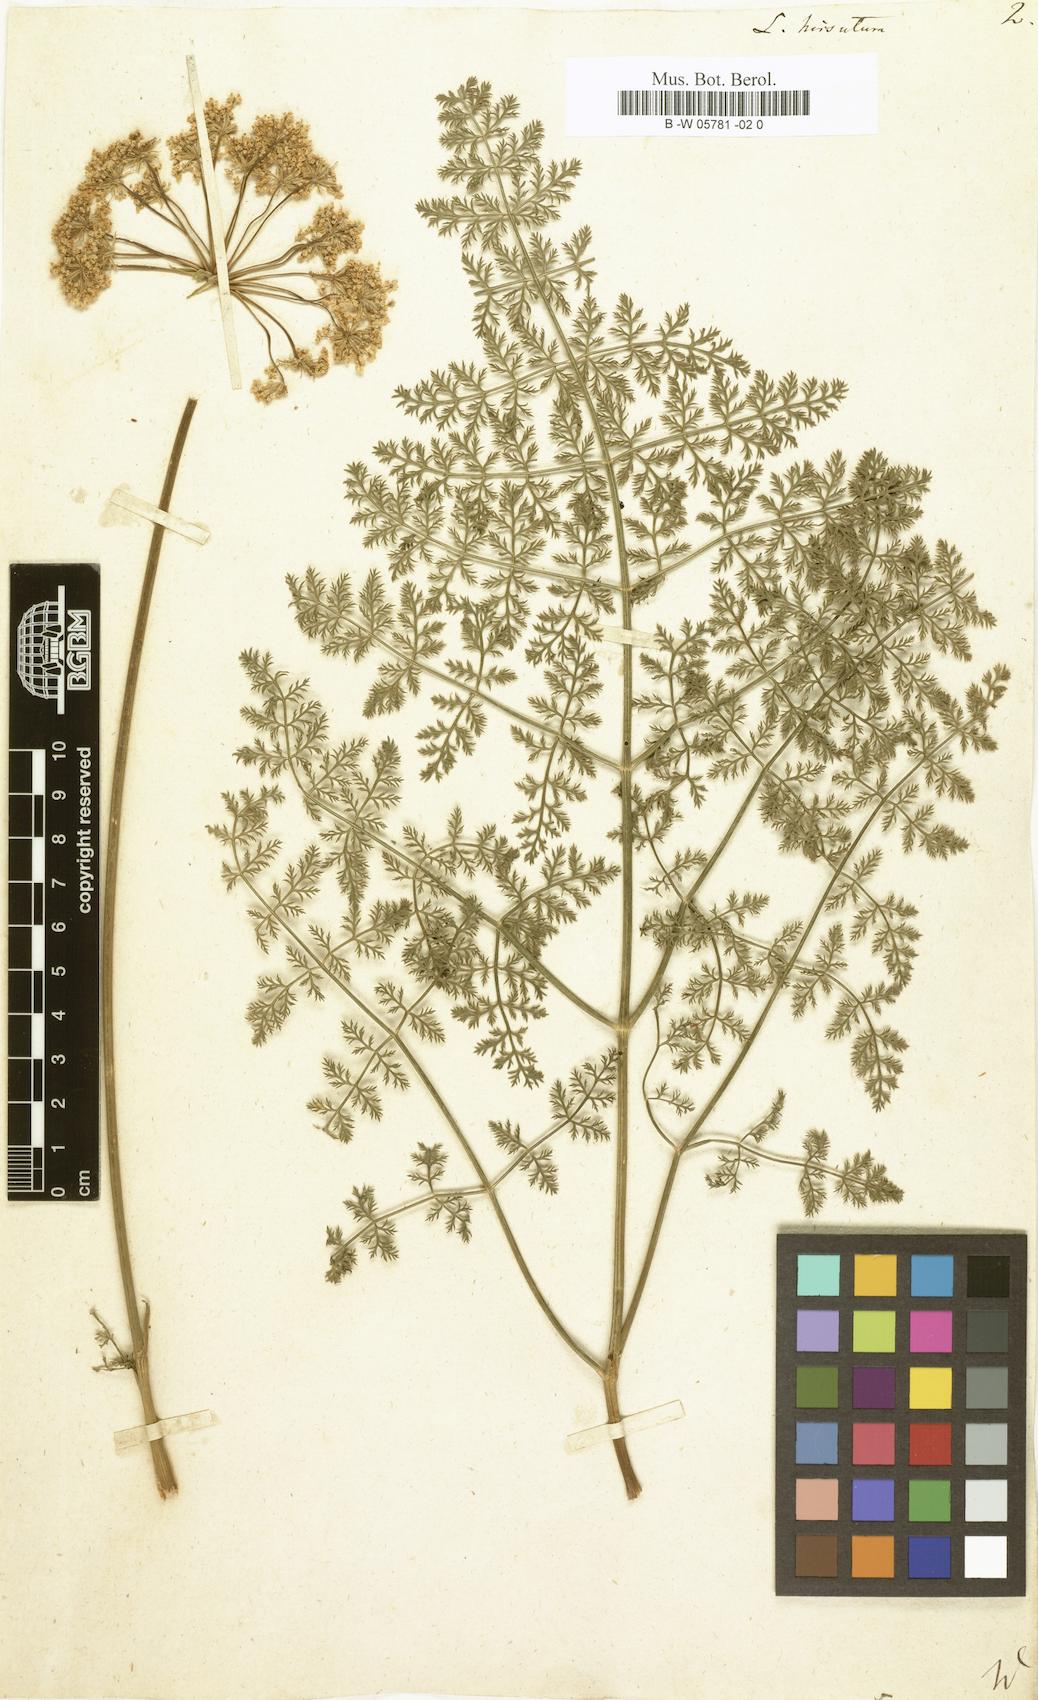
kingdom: Plantae
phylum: Tracheophyta
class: Magnoliopsida
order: Apiales
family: Apiaceae
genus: Laserpitium
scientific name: Laserpitium halleri
